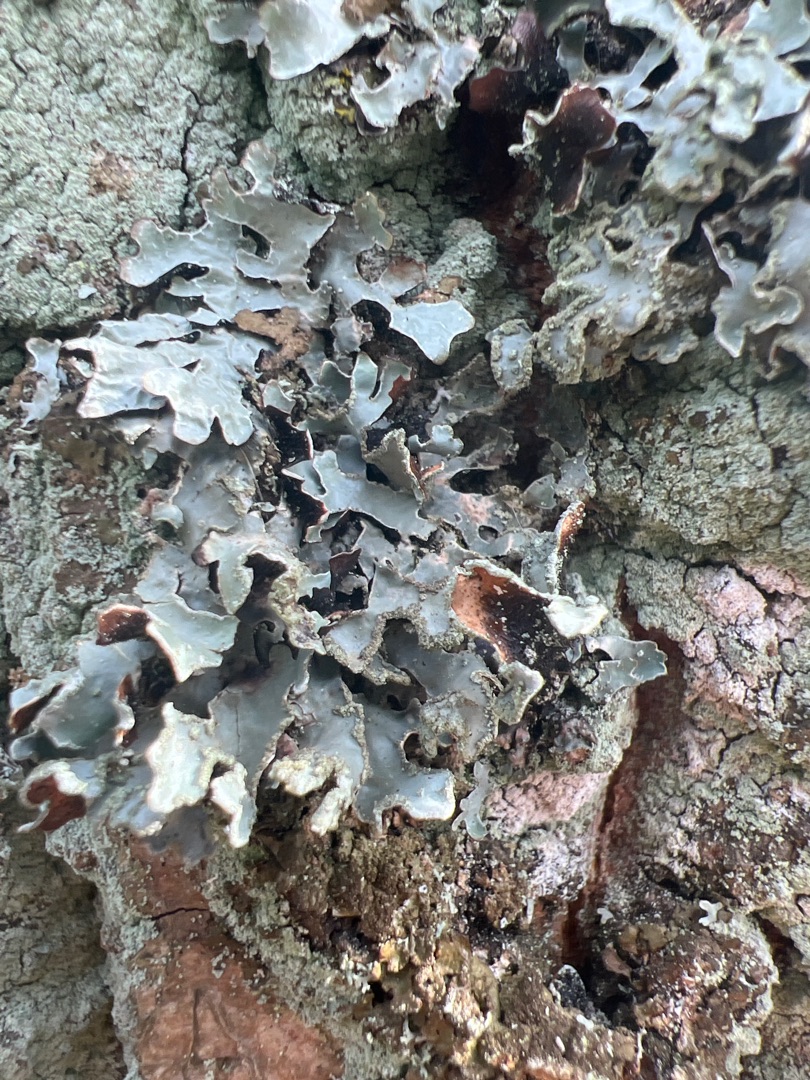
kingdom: Fungi
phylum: Ascomycota
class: Lecanoromycetes
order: Lecanorales
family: Parmeliaceae
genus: Parmelia
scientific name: Parmelia sulcata
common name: Rynket skållav
